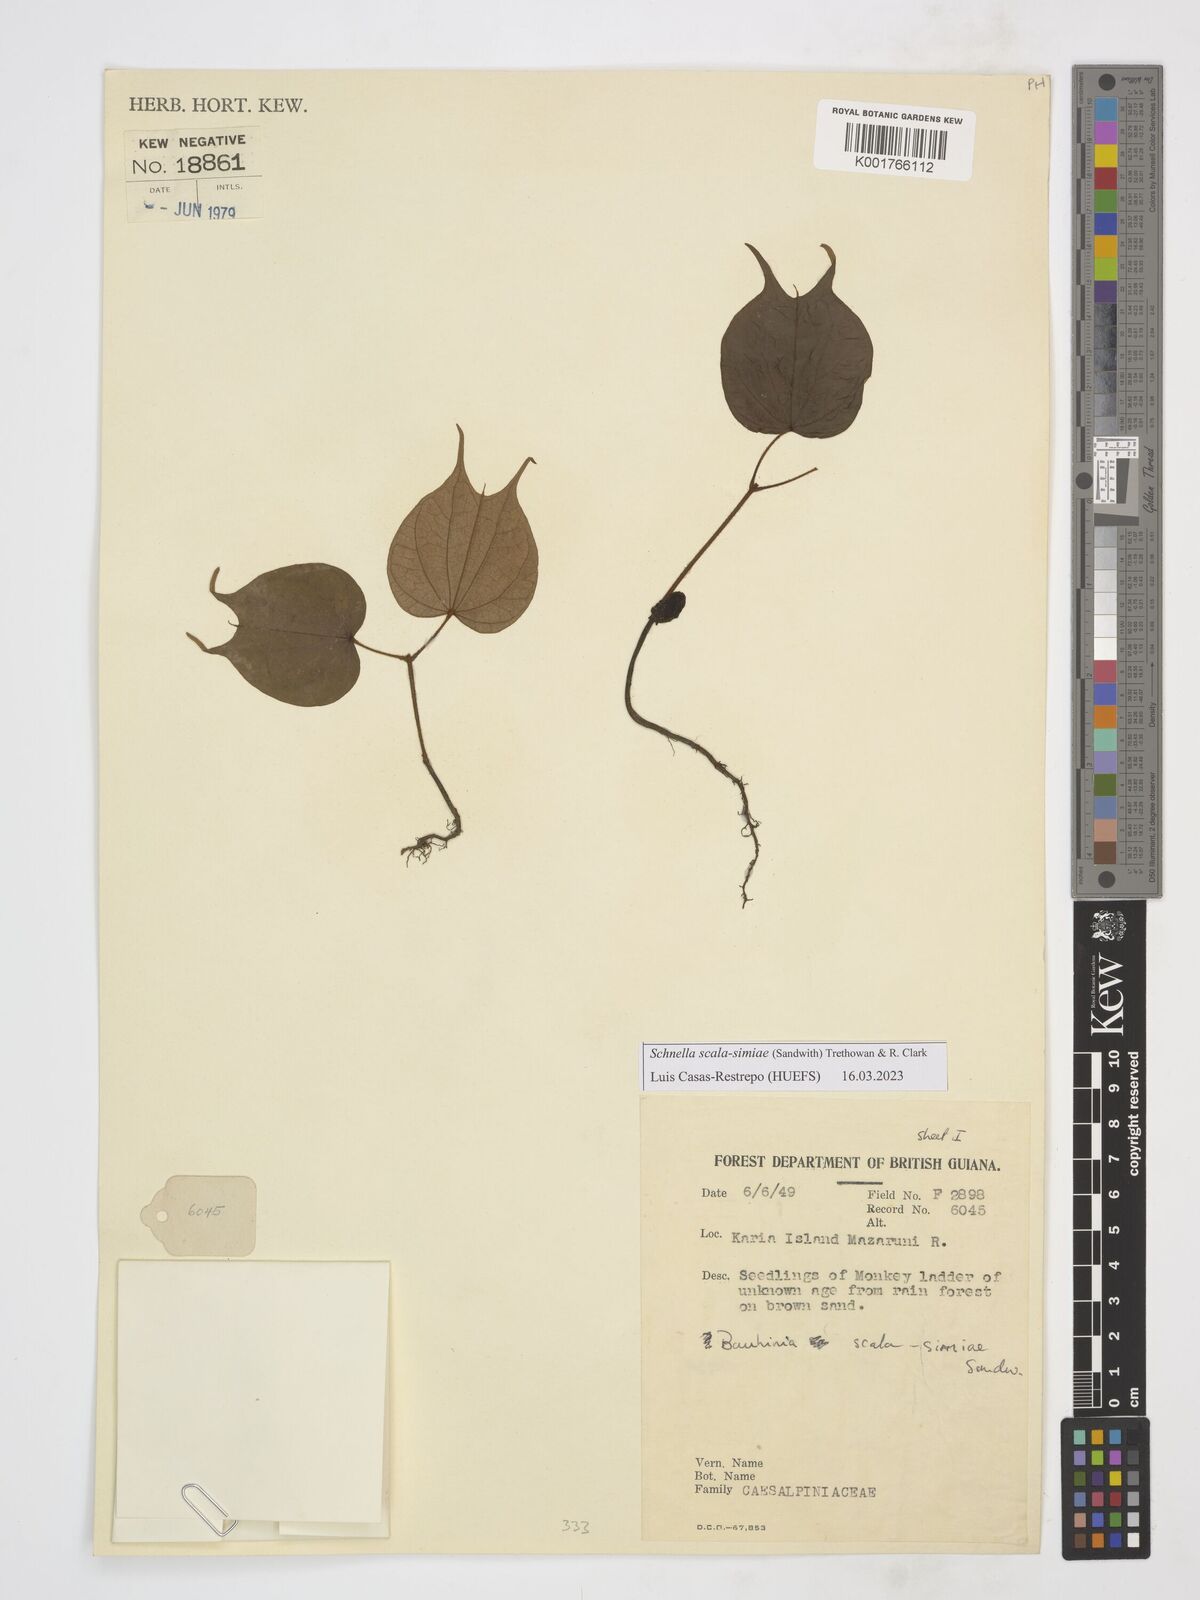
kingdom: Plantae
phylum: Tracheophyta
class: Magnoliopsida
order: Fabales
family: Fabaceae
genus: Schnella
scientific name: Schnella scala-simiae
